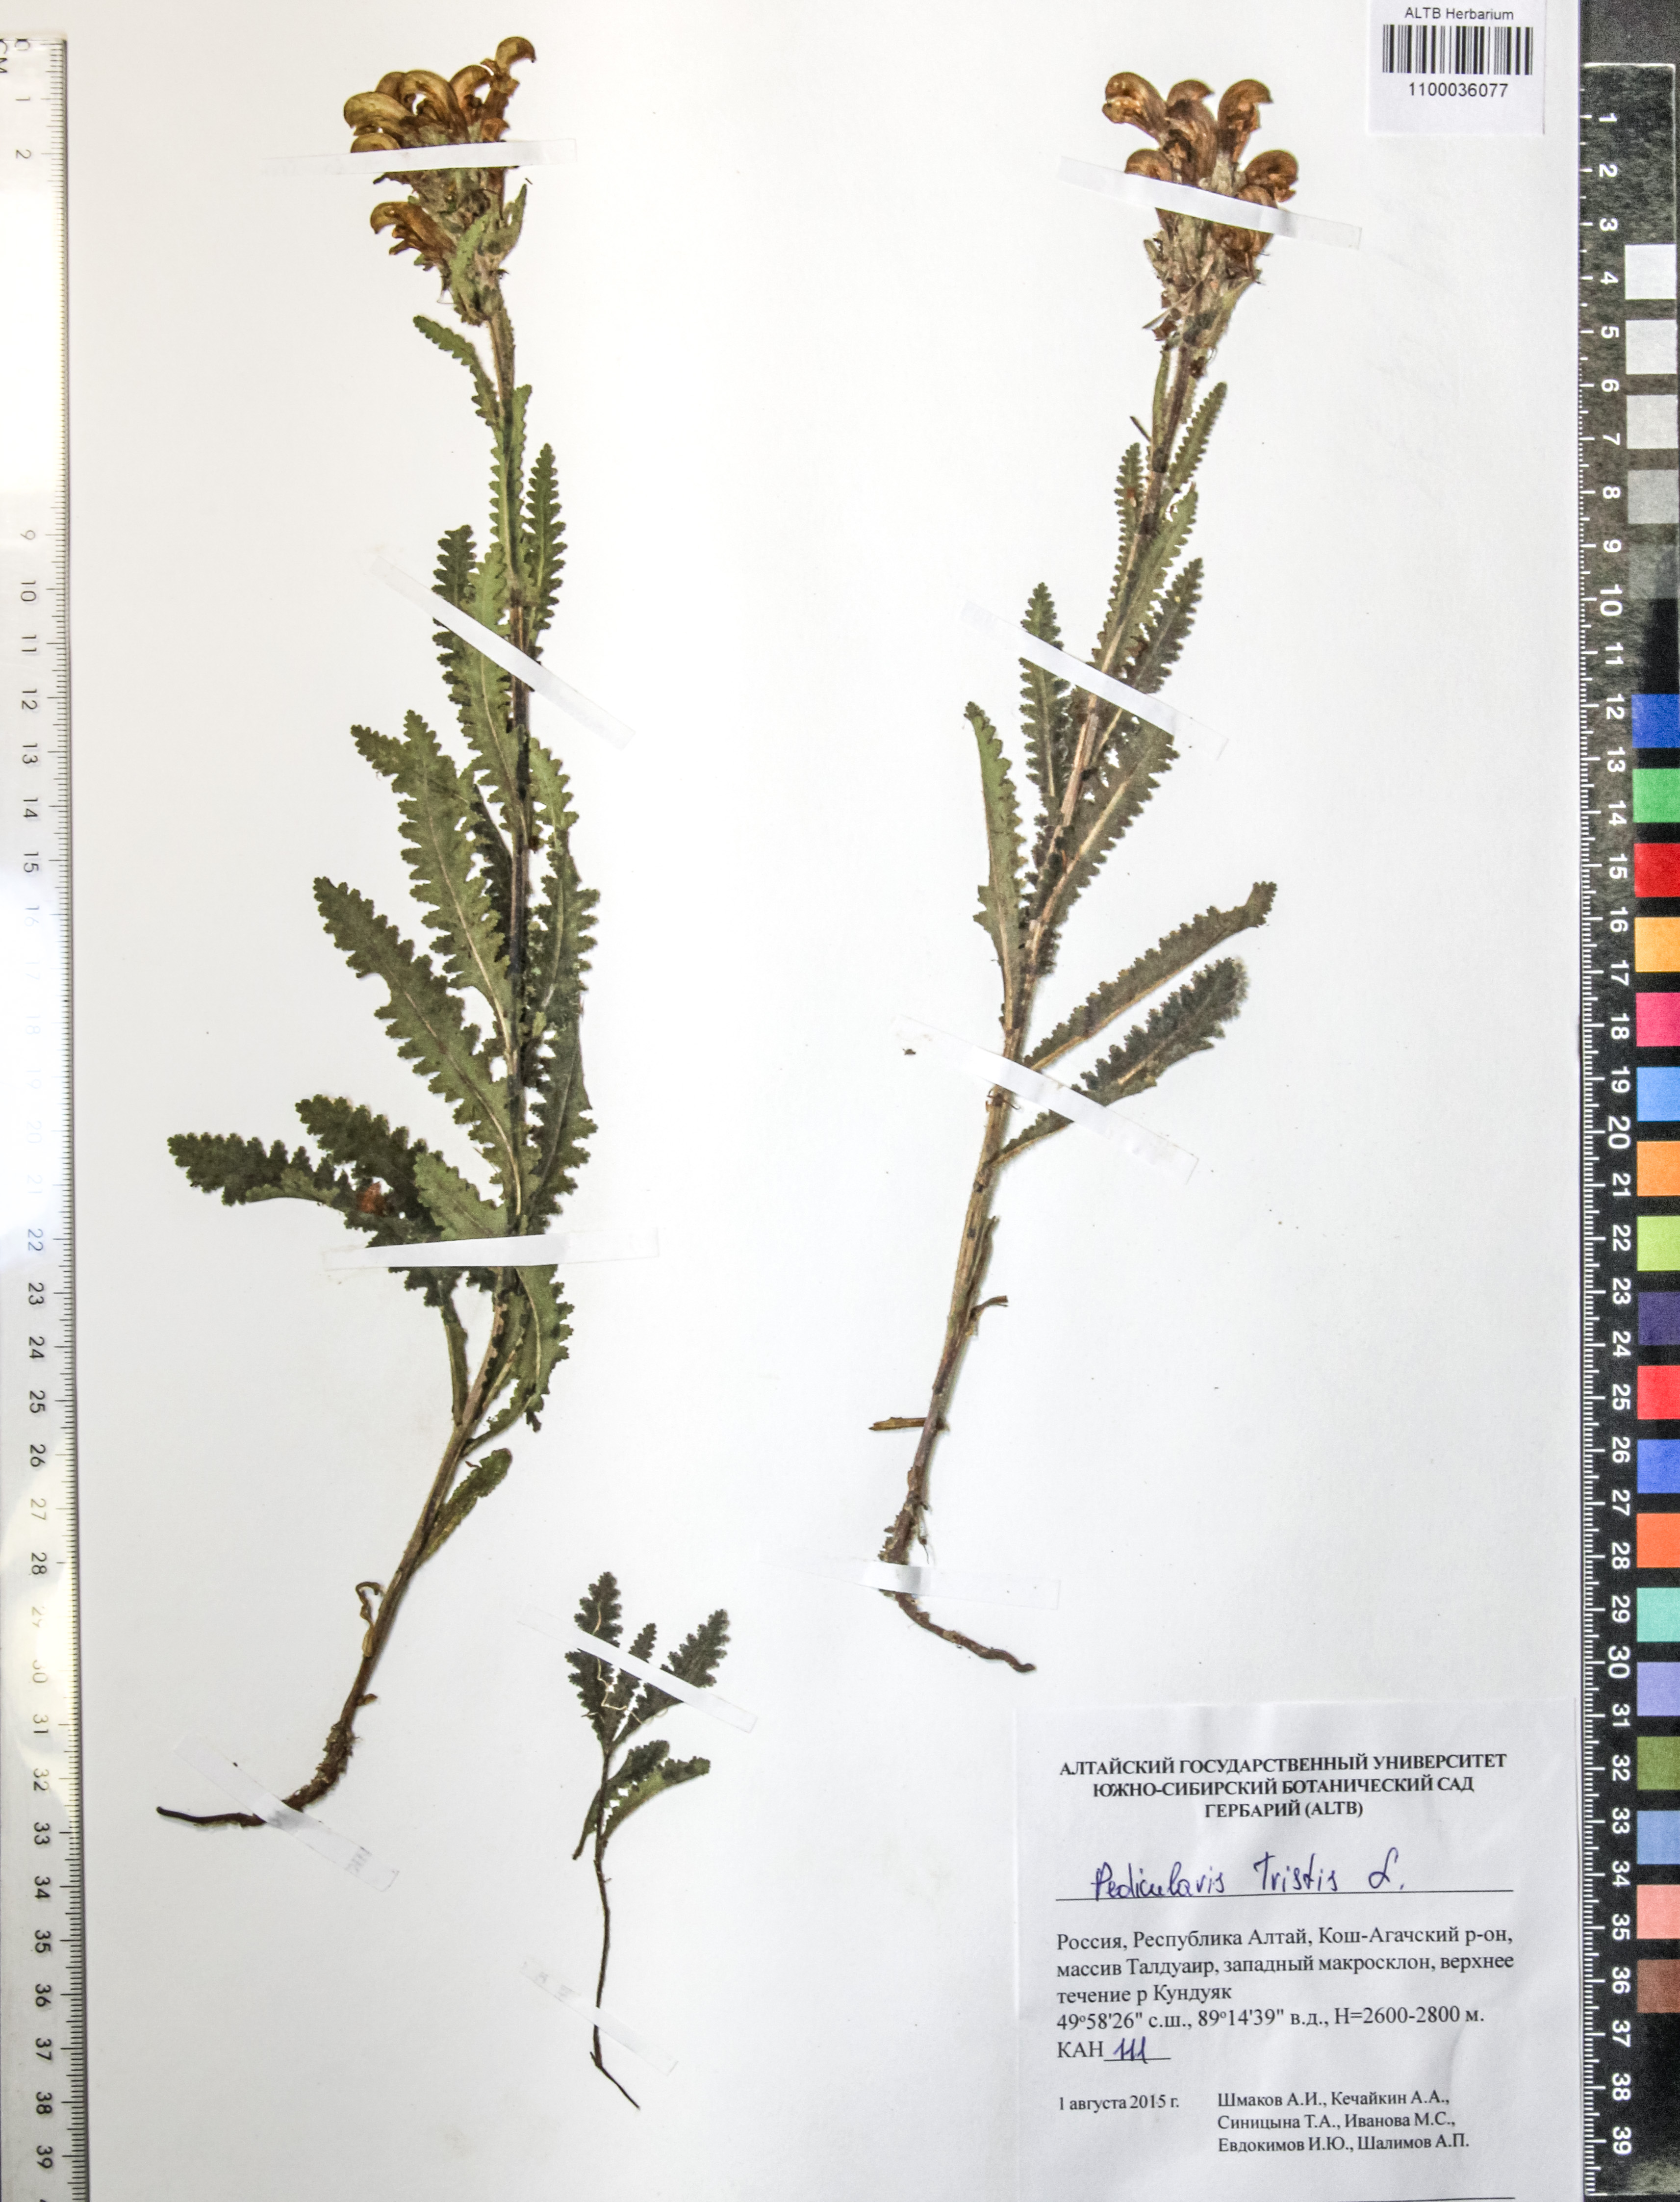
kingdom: Plantae
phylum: Tracheophyta
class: Magnoliopsida
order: Lamiales
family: Orobanchaceae
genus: Pedicularis
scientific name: Pedicularis tristis
